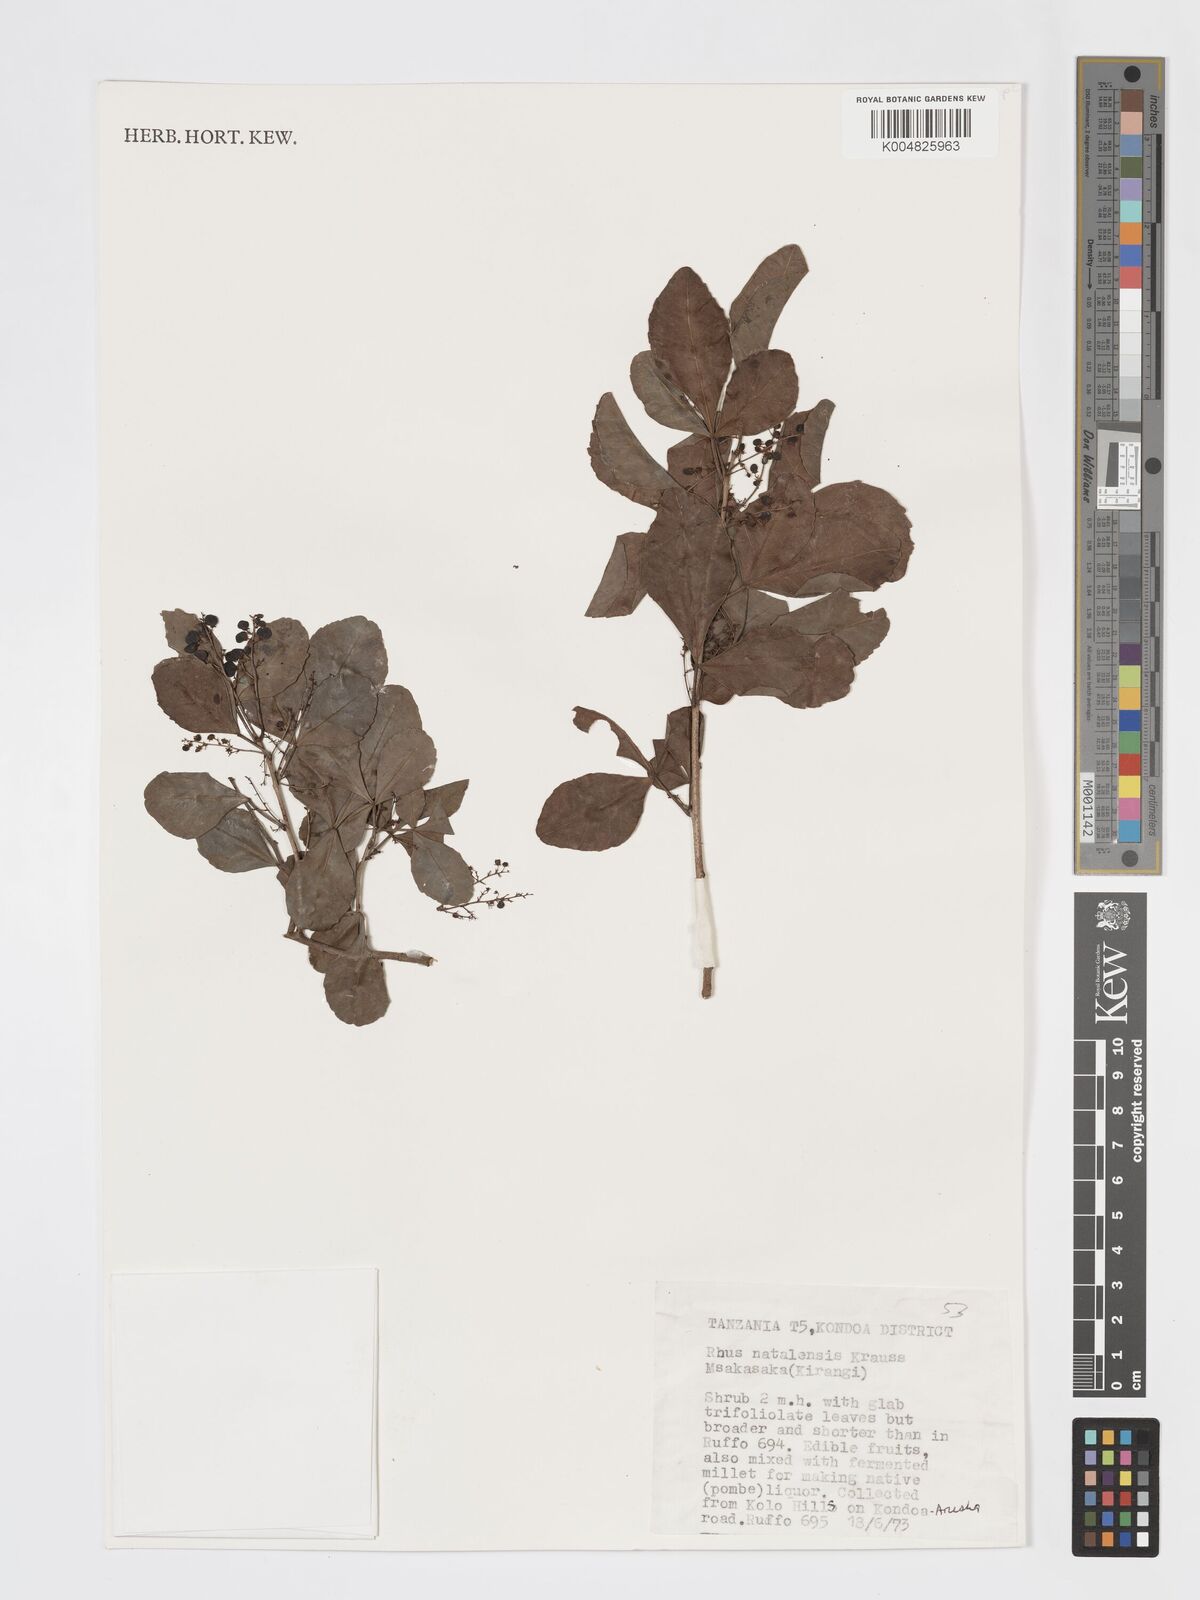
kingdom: Plantae
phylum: Tracheophyta
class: Magnoliopsida
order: Sapindales
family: Anacardiaceae
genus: Searsia
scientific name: Searsia natalensis
